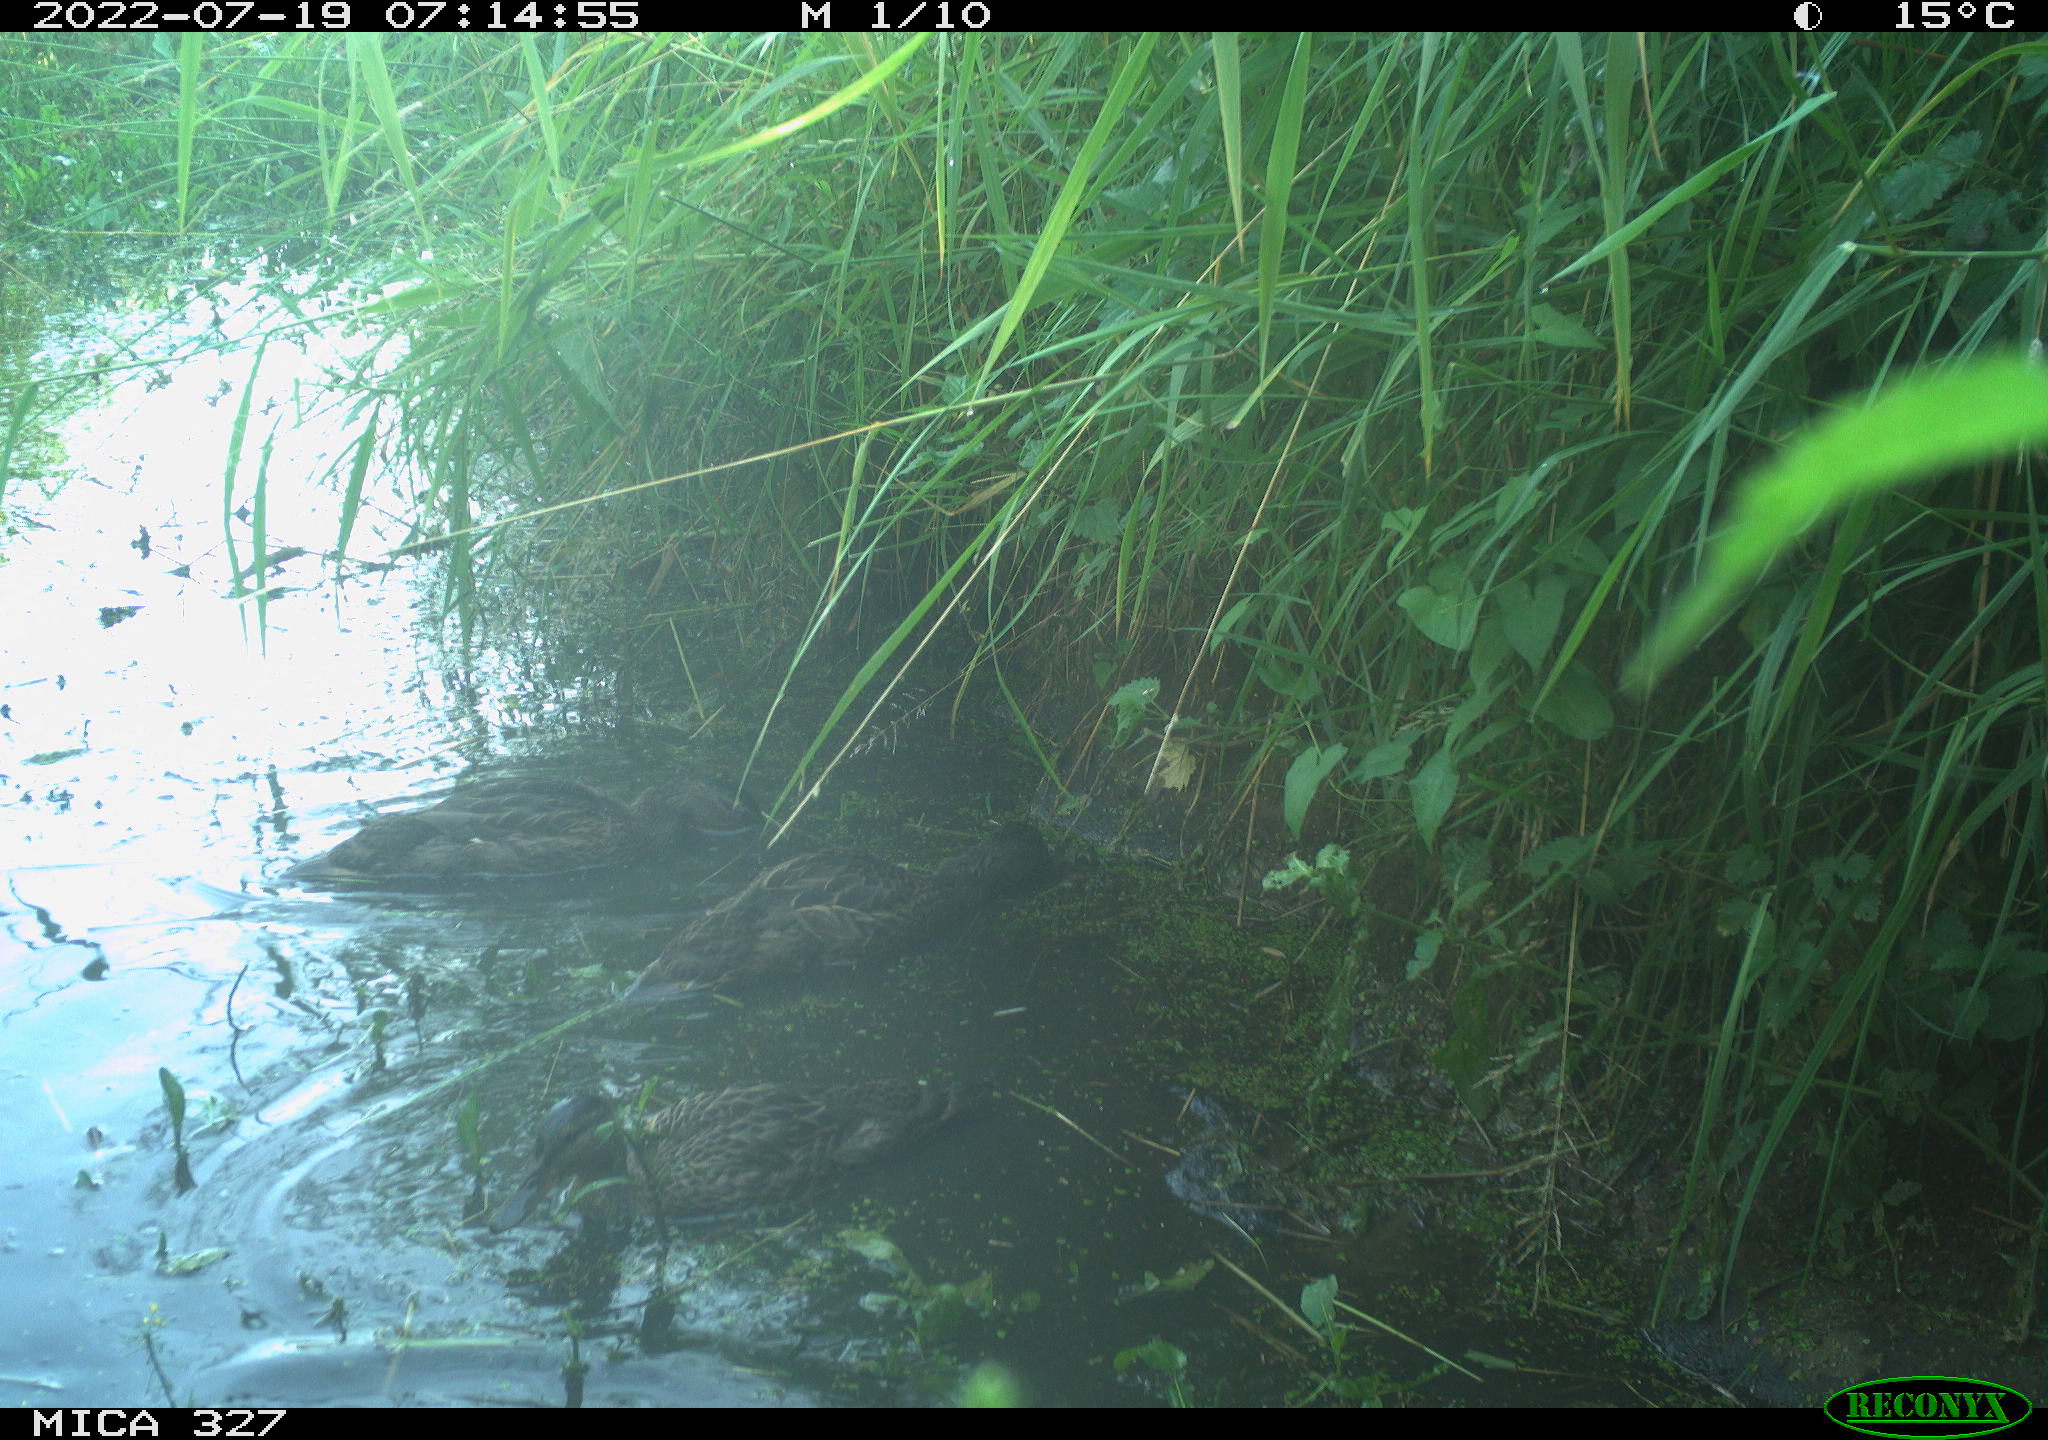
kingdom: Animalia
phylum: Chordata
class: Aves
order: Anseriformes
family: Anatidae
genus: Anas
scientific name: Anas
